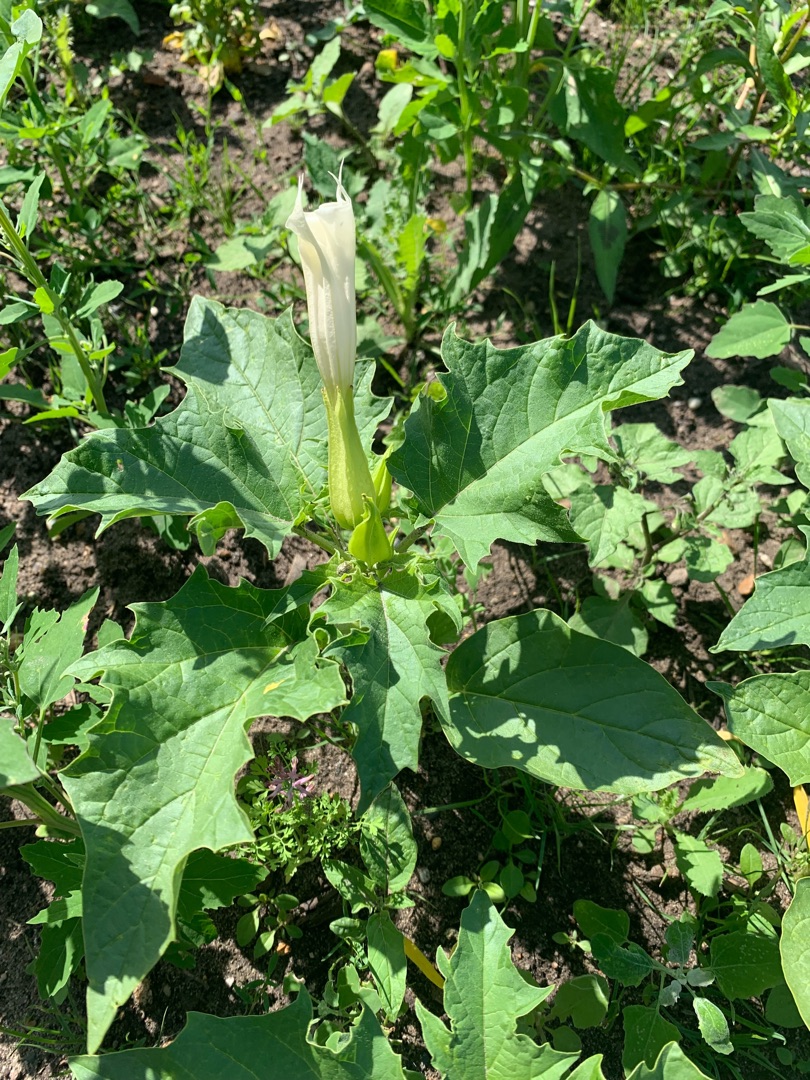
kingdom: Plantae
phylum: Tracheophyta
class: Magnoliopsida
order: Solanales
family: Solanaceae
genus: Datura
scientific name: Datura stramonium
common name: Pigæble
